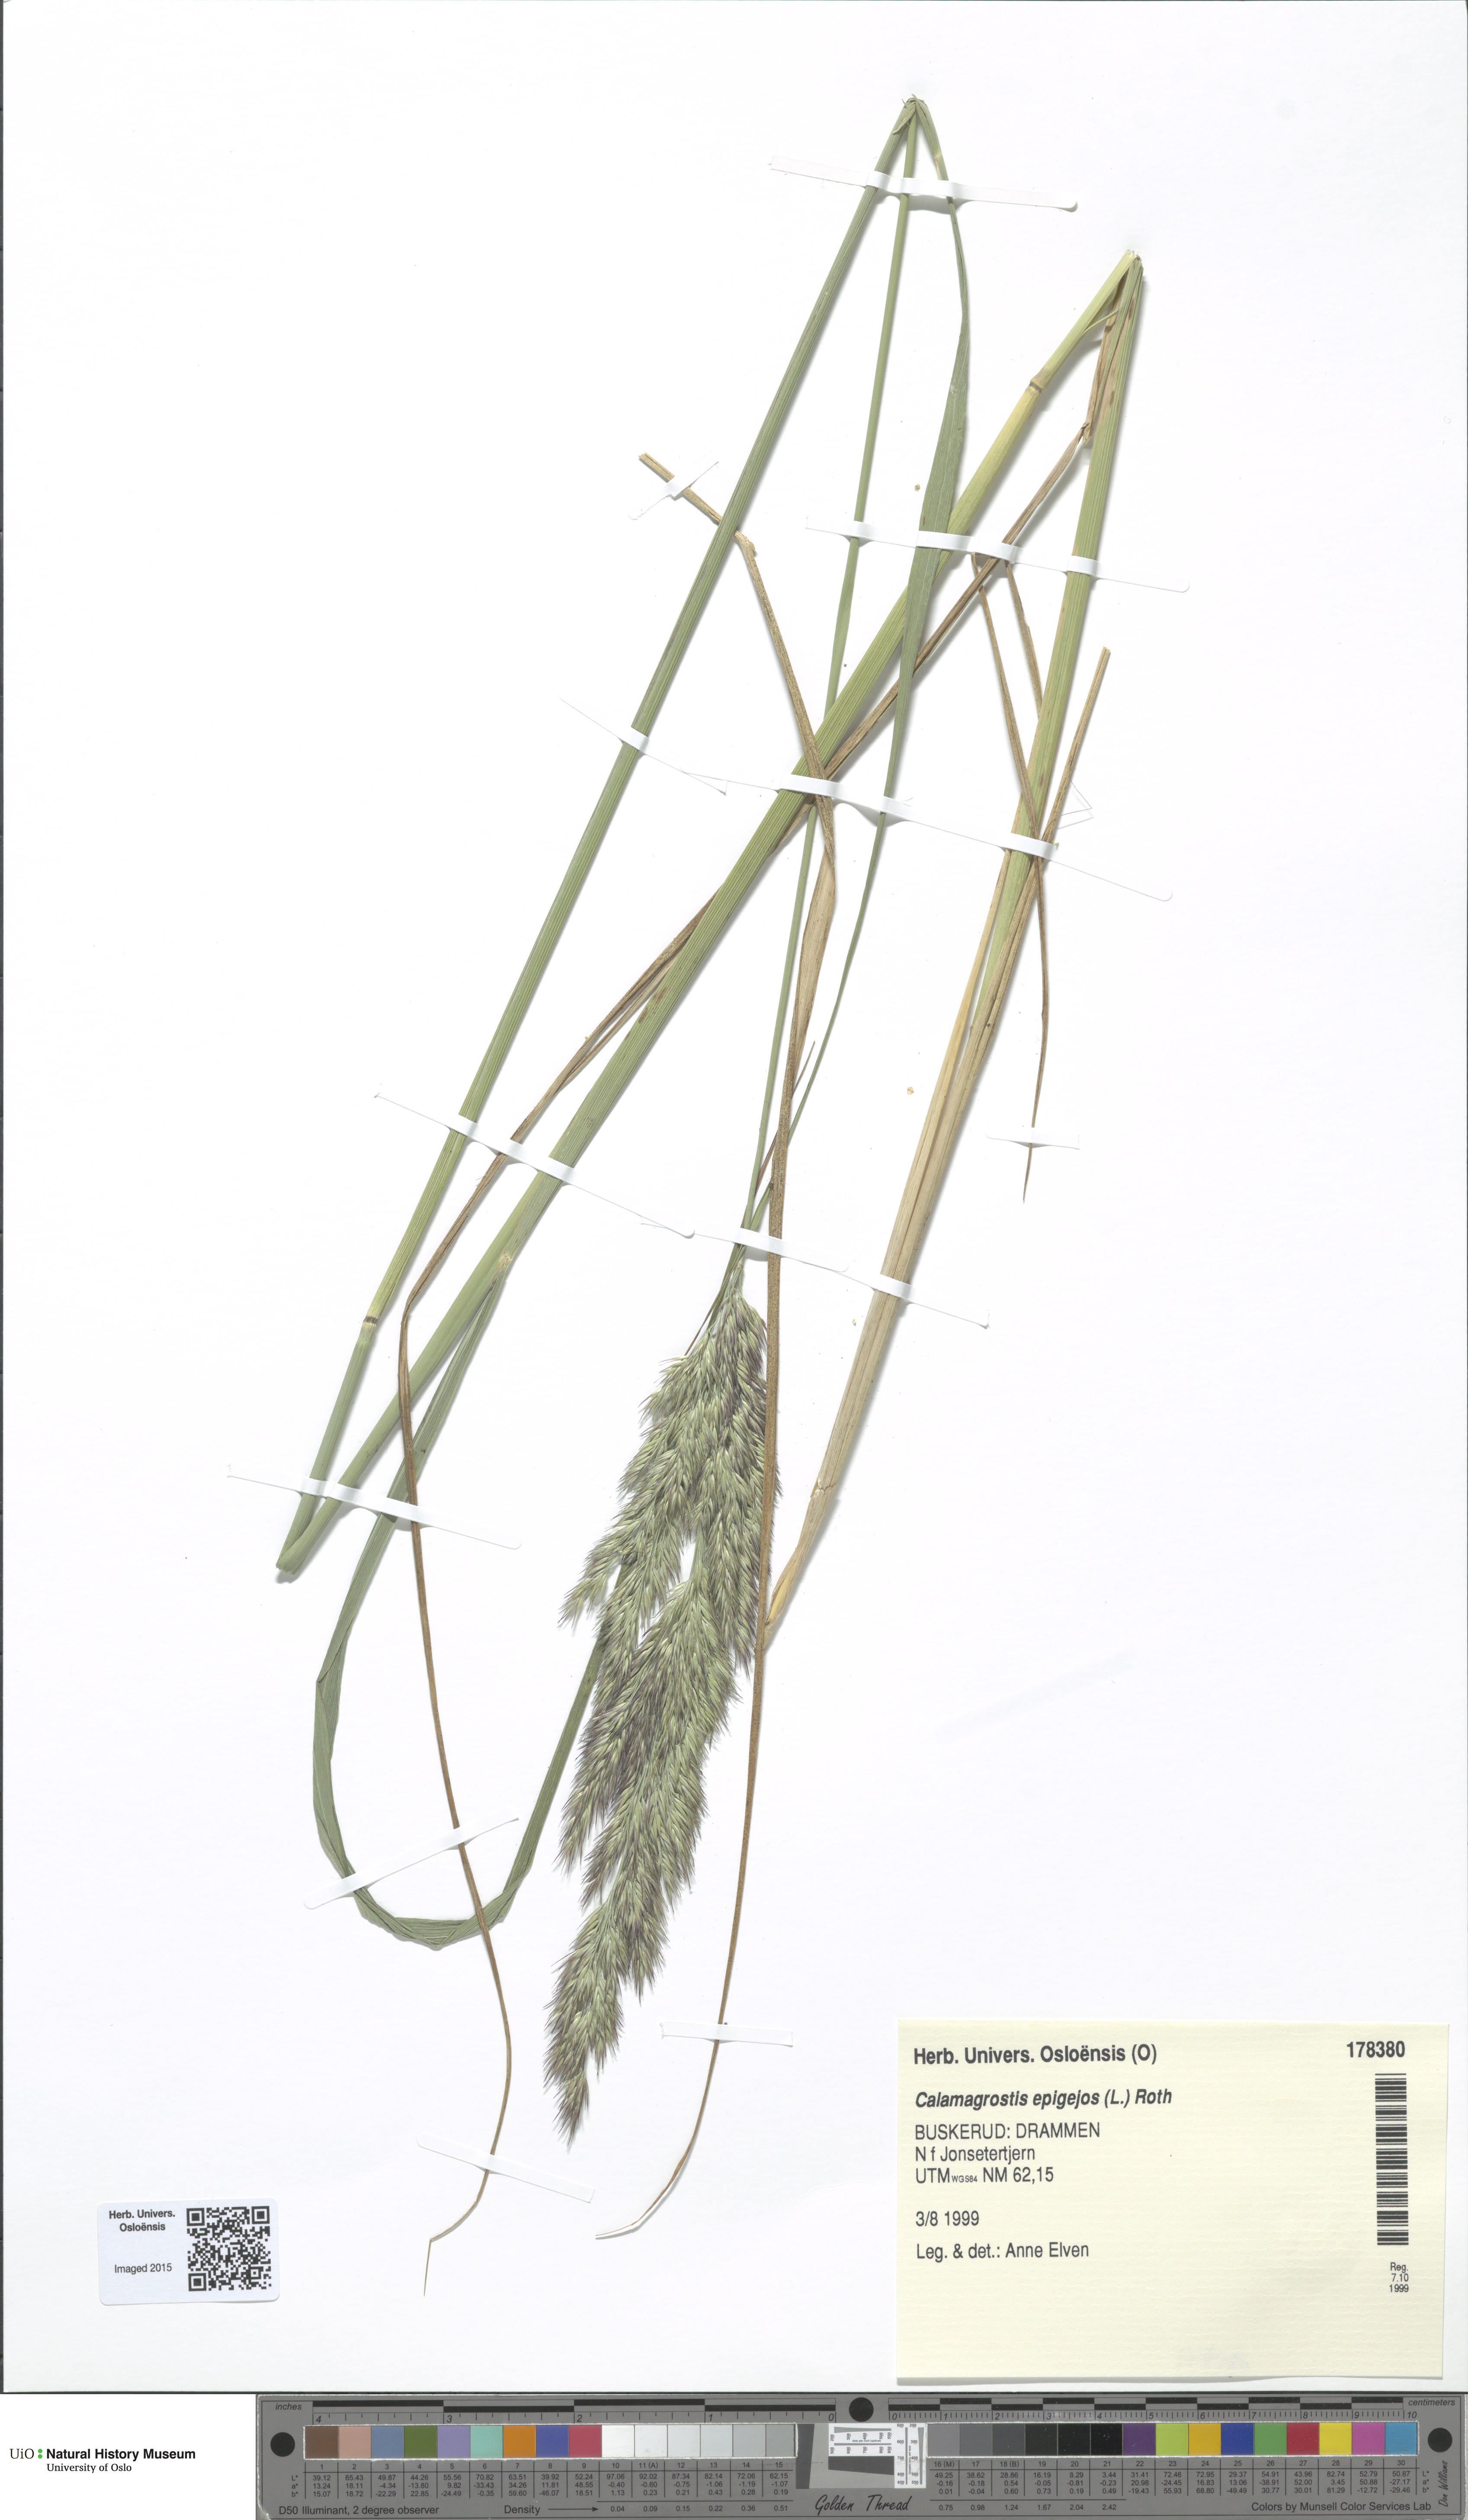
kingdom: Plantae
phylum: Tracheophyta
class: Liliopsida
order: Poales
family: Poaceae
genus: Calamagrostis
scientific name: Calamagrostis epigejos
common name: Wood small-reed
